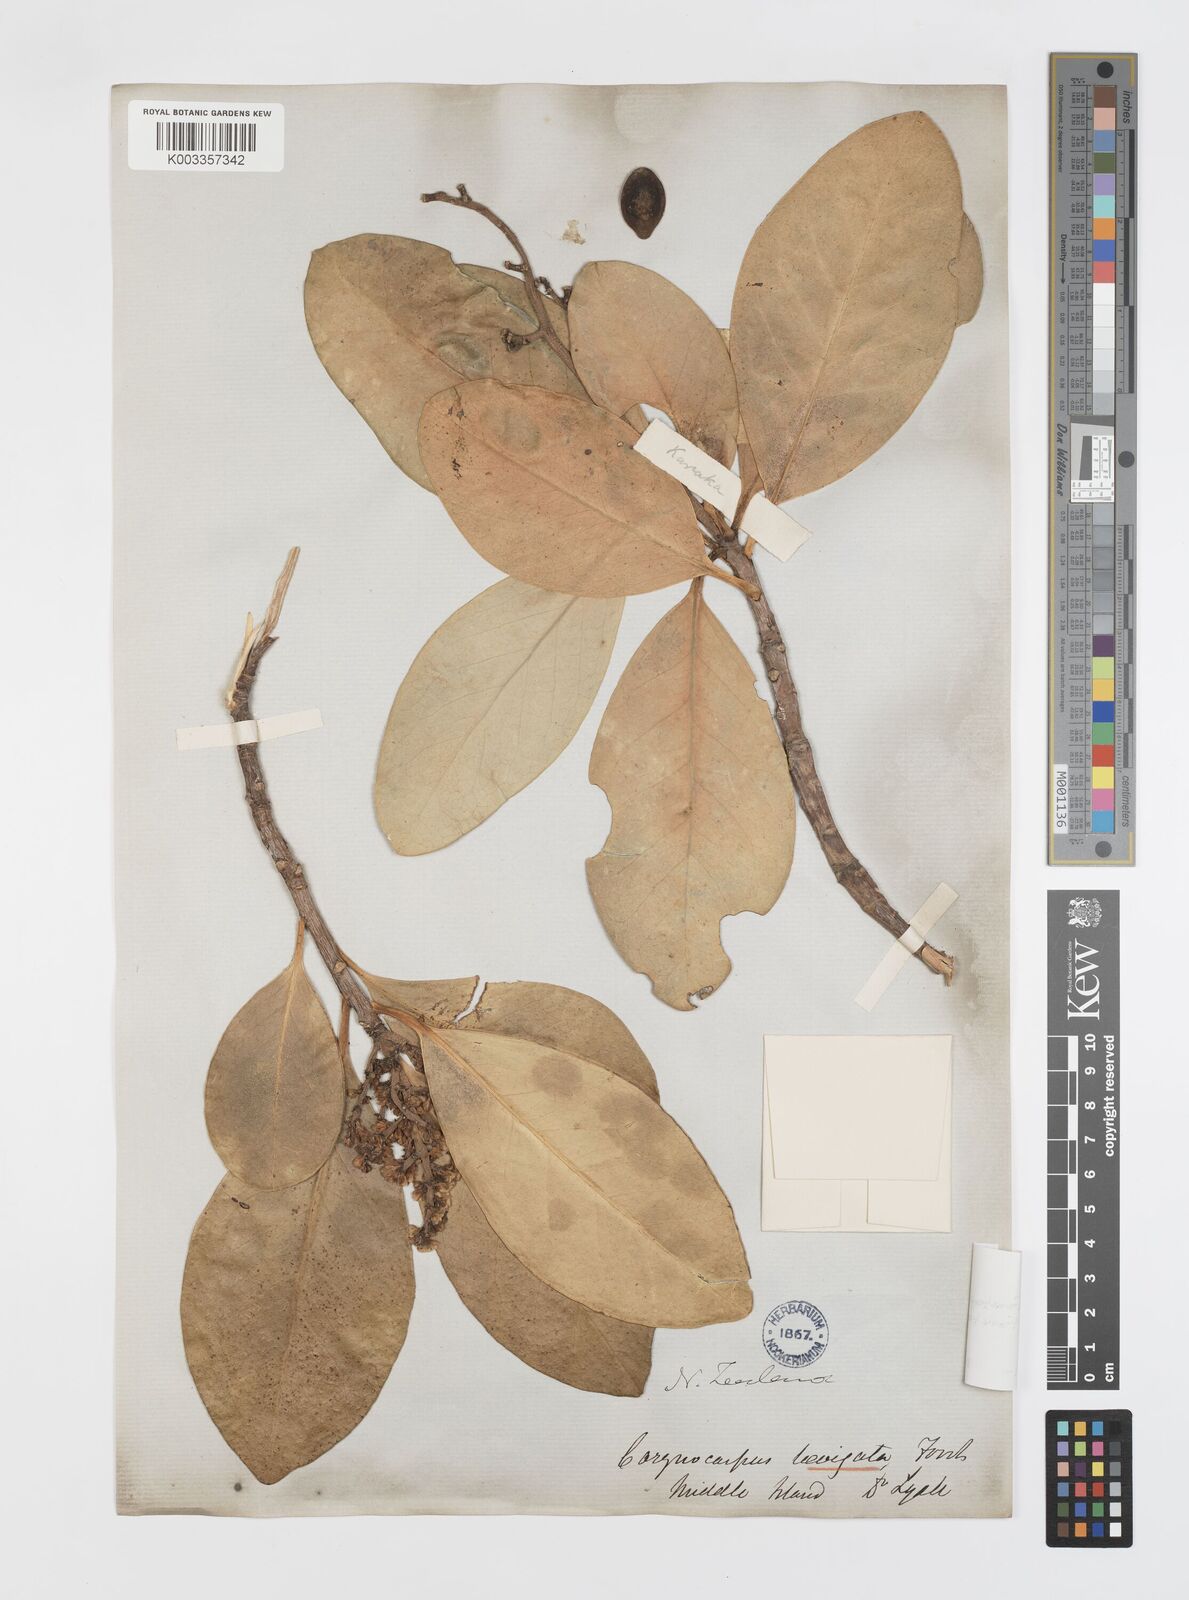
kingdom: Plantae
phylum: Tracheophyta
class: Magnoliopsida
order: Cucurbitales
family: Corynocarpaceae
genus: Corynocarpus
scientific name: Corynocarpus laevigatus
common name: New zealand laurel
